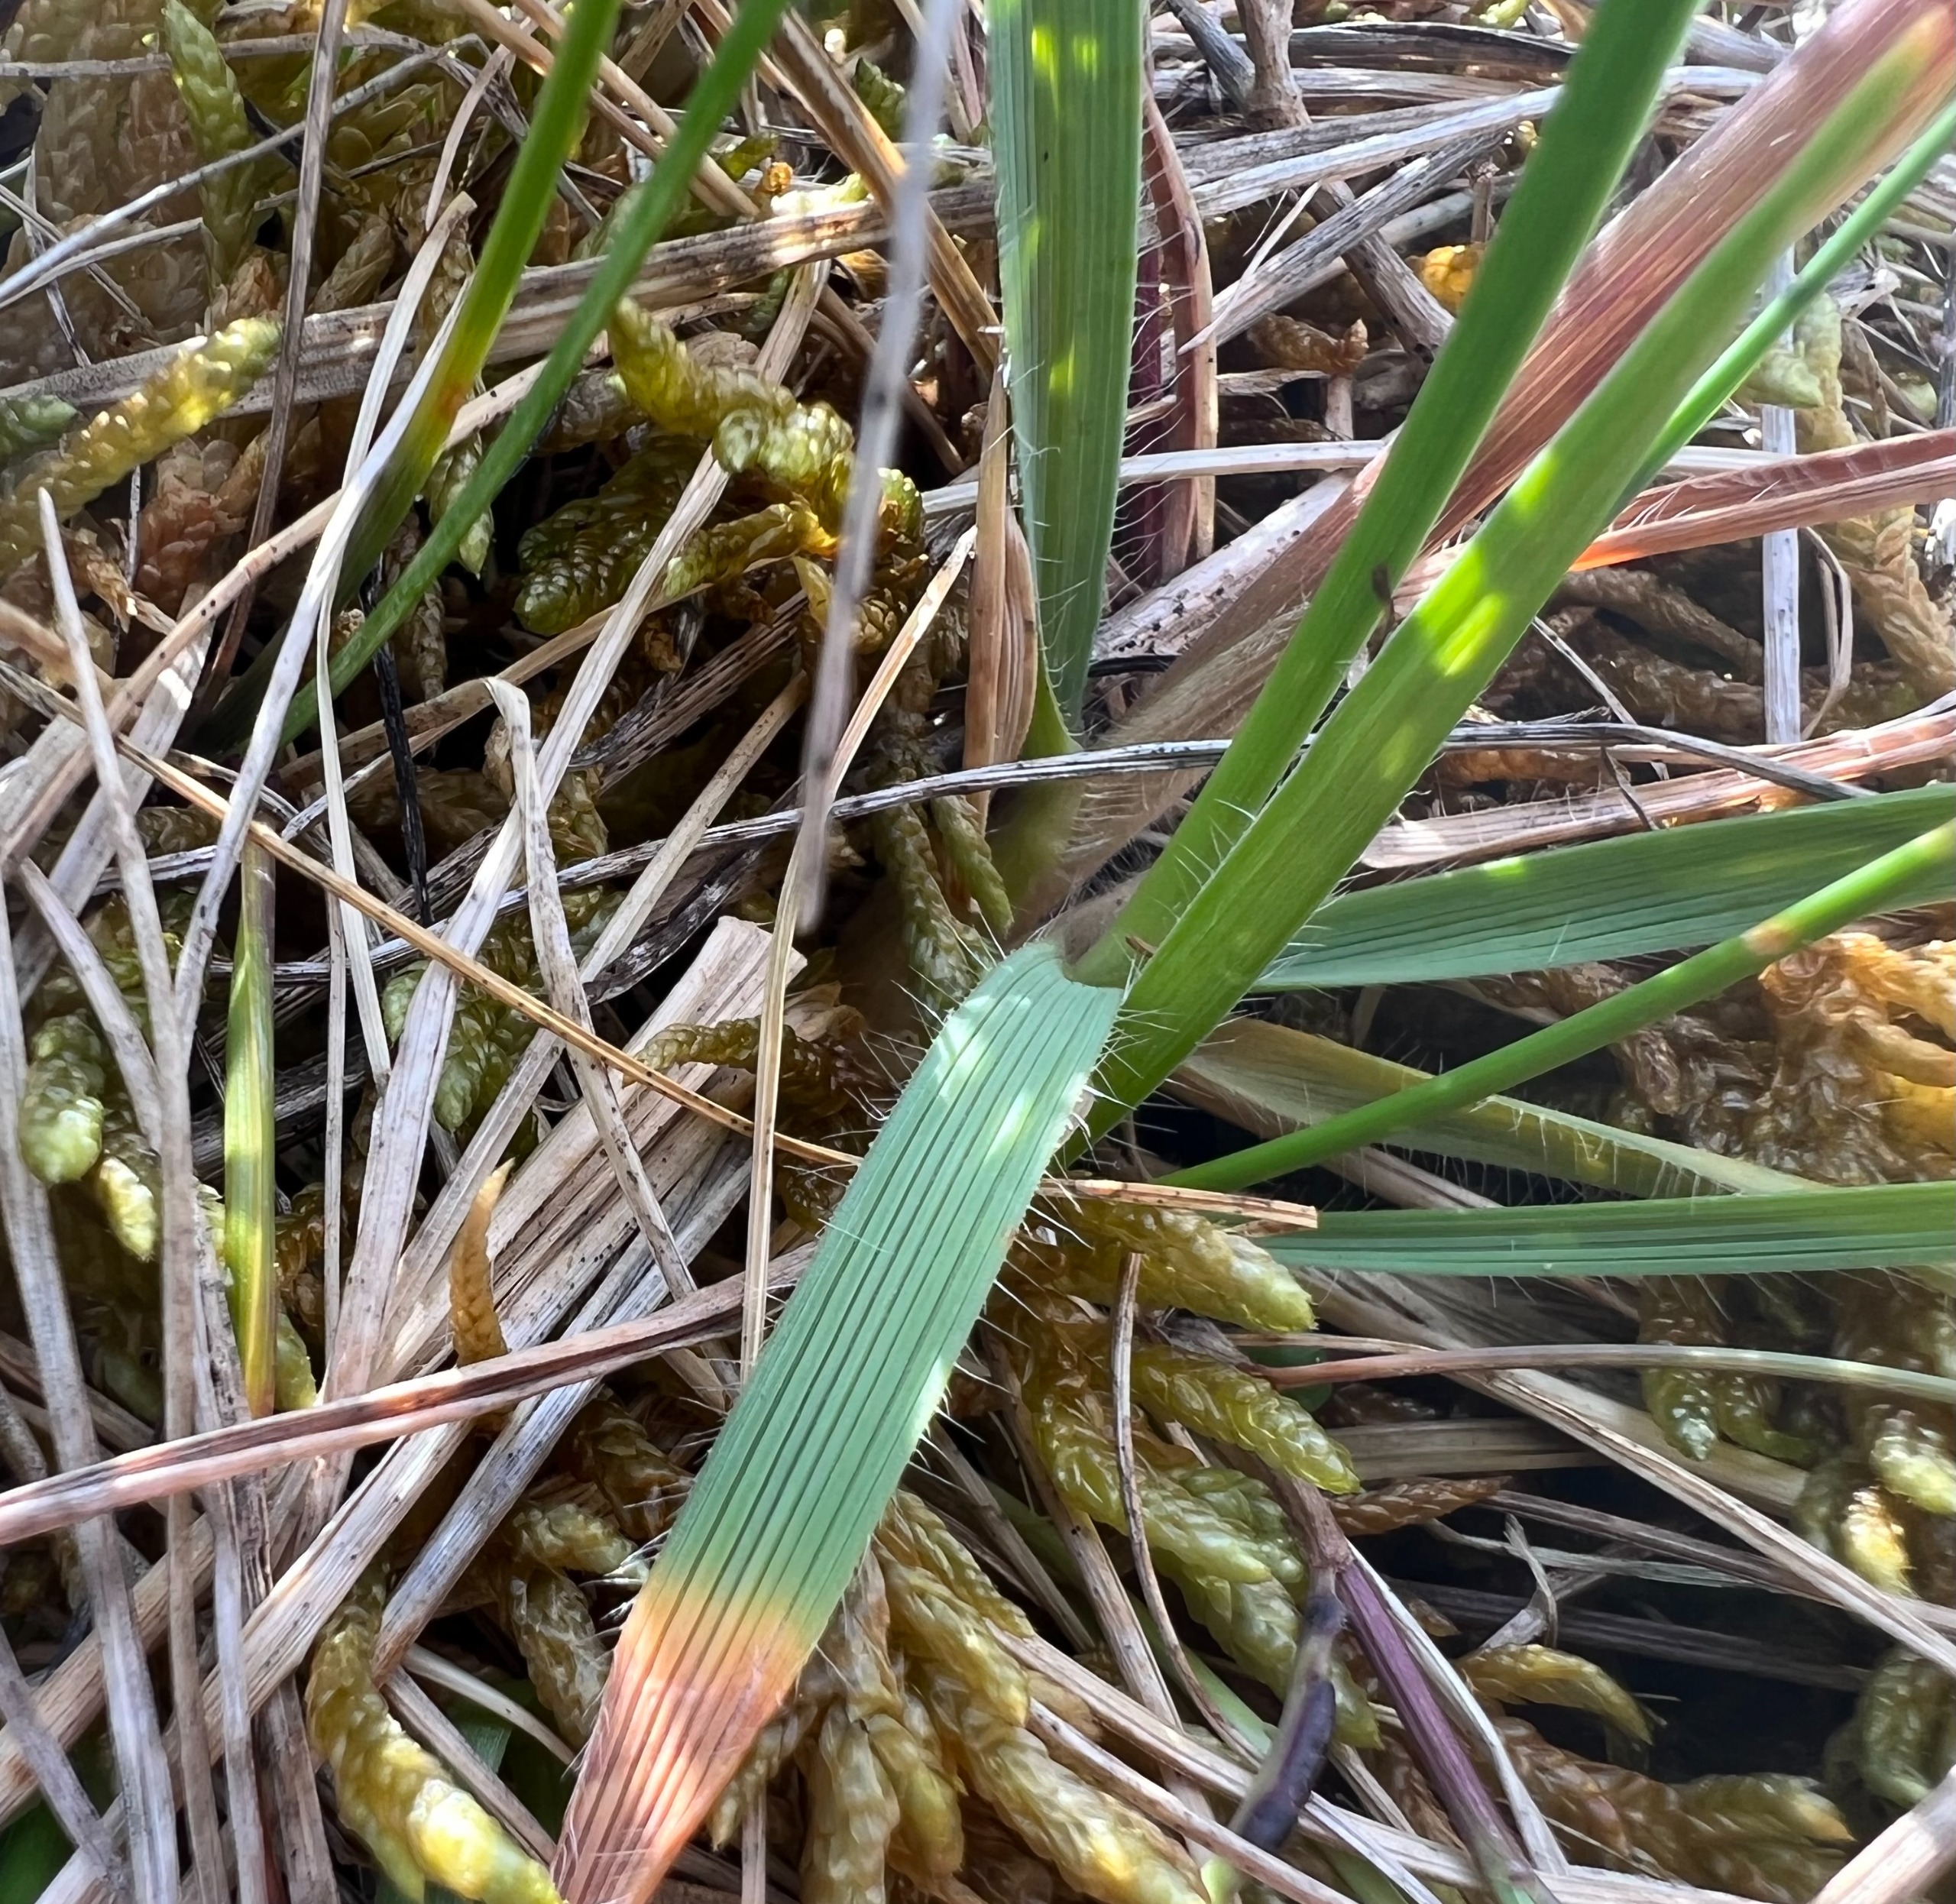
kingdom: Plantae
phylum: Tracheophyta
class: Liliopsida
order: Poales
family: Poaceae
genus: Koeleria
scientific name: Koeleria pyramidata
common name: Dansk kambunke
